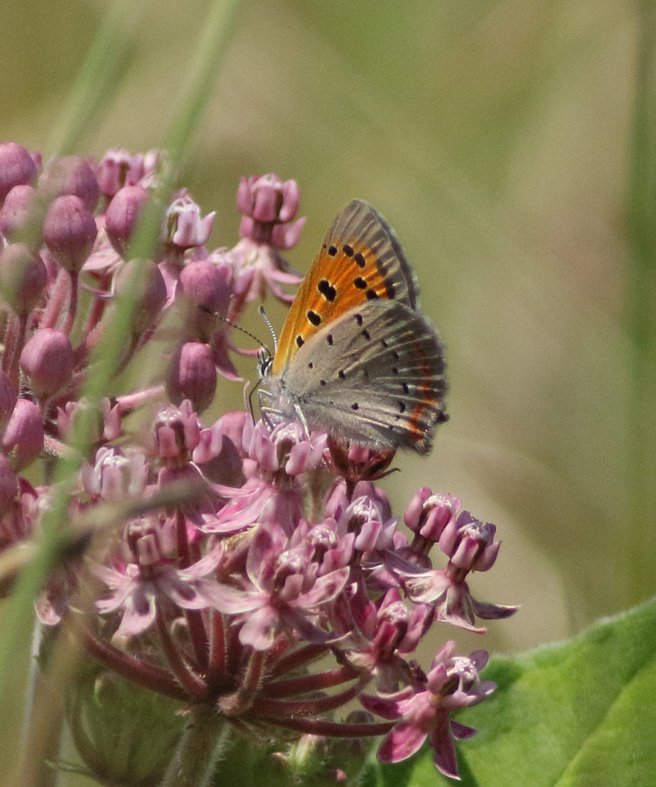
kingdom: Animalia
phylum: Arthropoda
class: Insecta
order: Lepidoptera
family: Lycaenidae
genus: Lycaena
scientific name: Lycaena phlaeas
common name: American Copper
